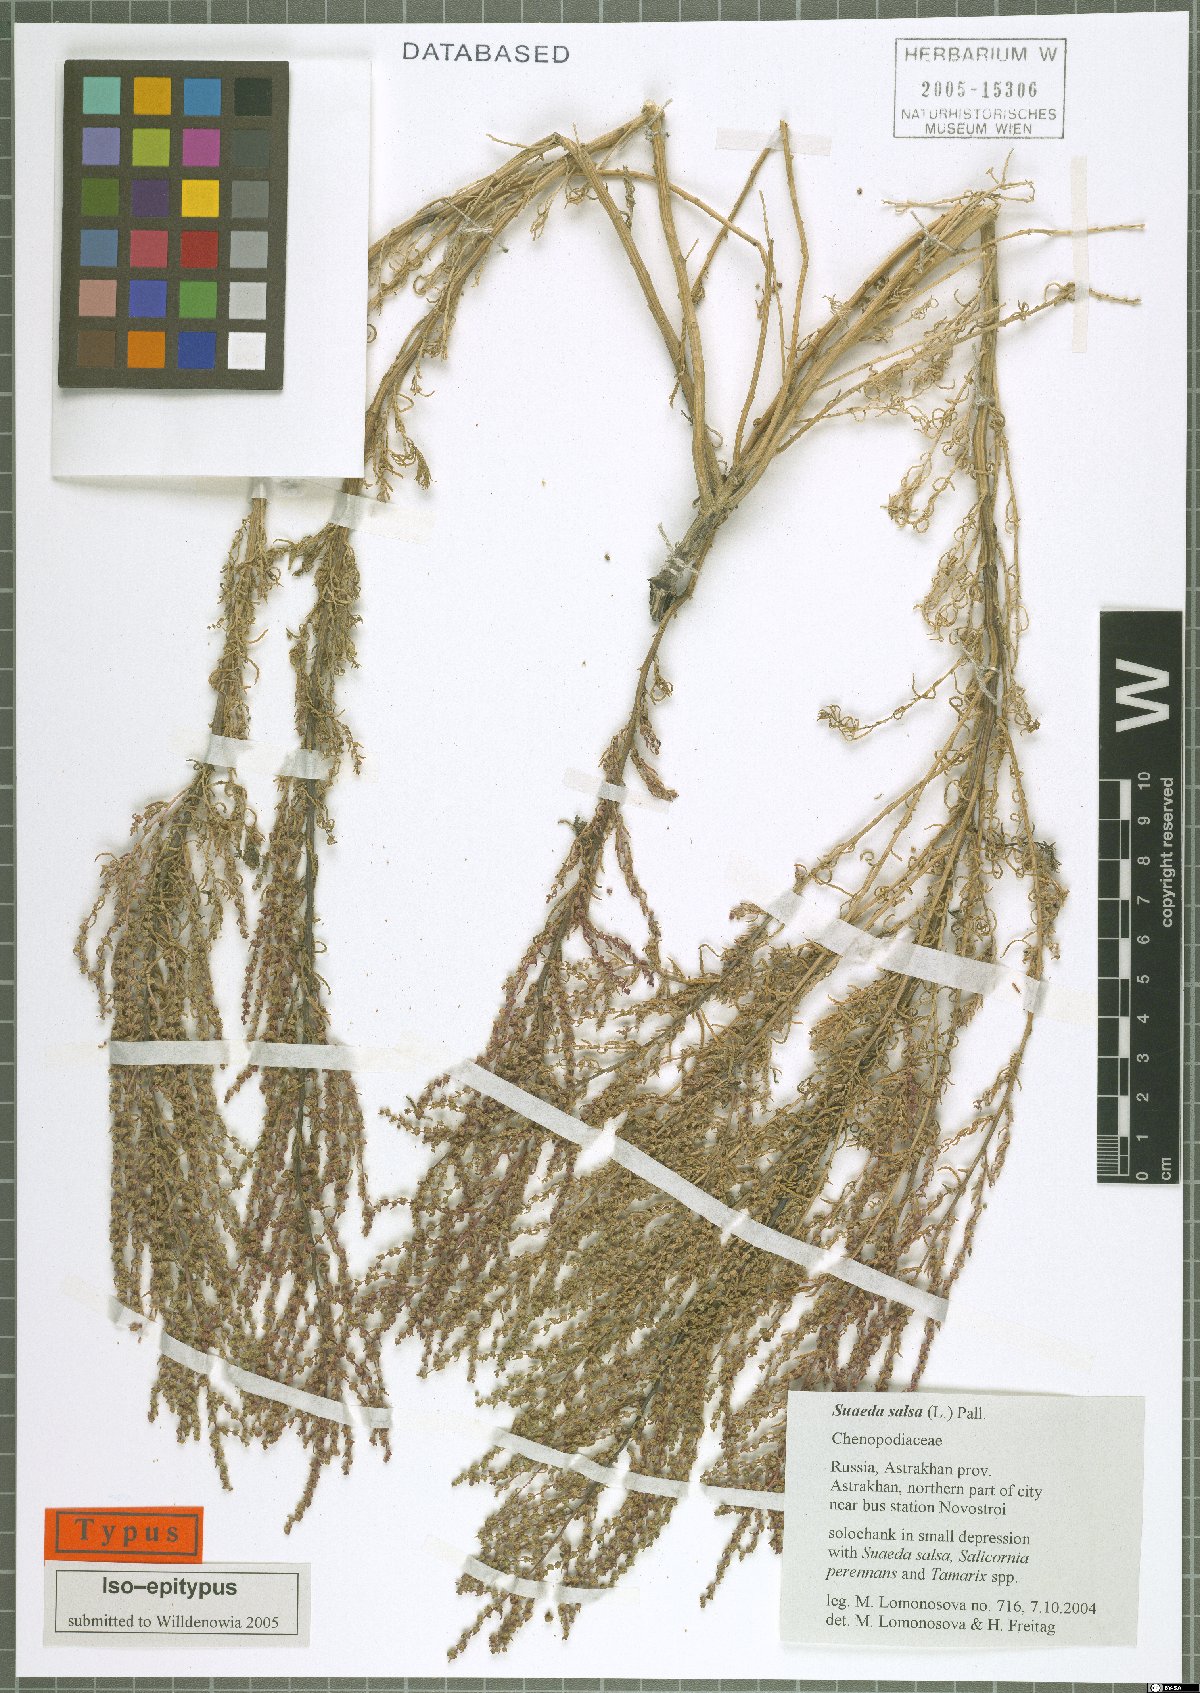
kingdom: Plantae
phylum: Tracheophyta
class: Magnoliopsida
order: Caryophyllales
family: Amaranthaceae
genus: Suaeda
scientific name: Suaeda salsa
